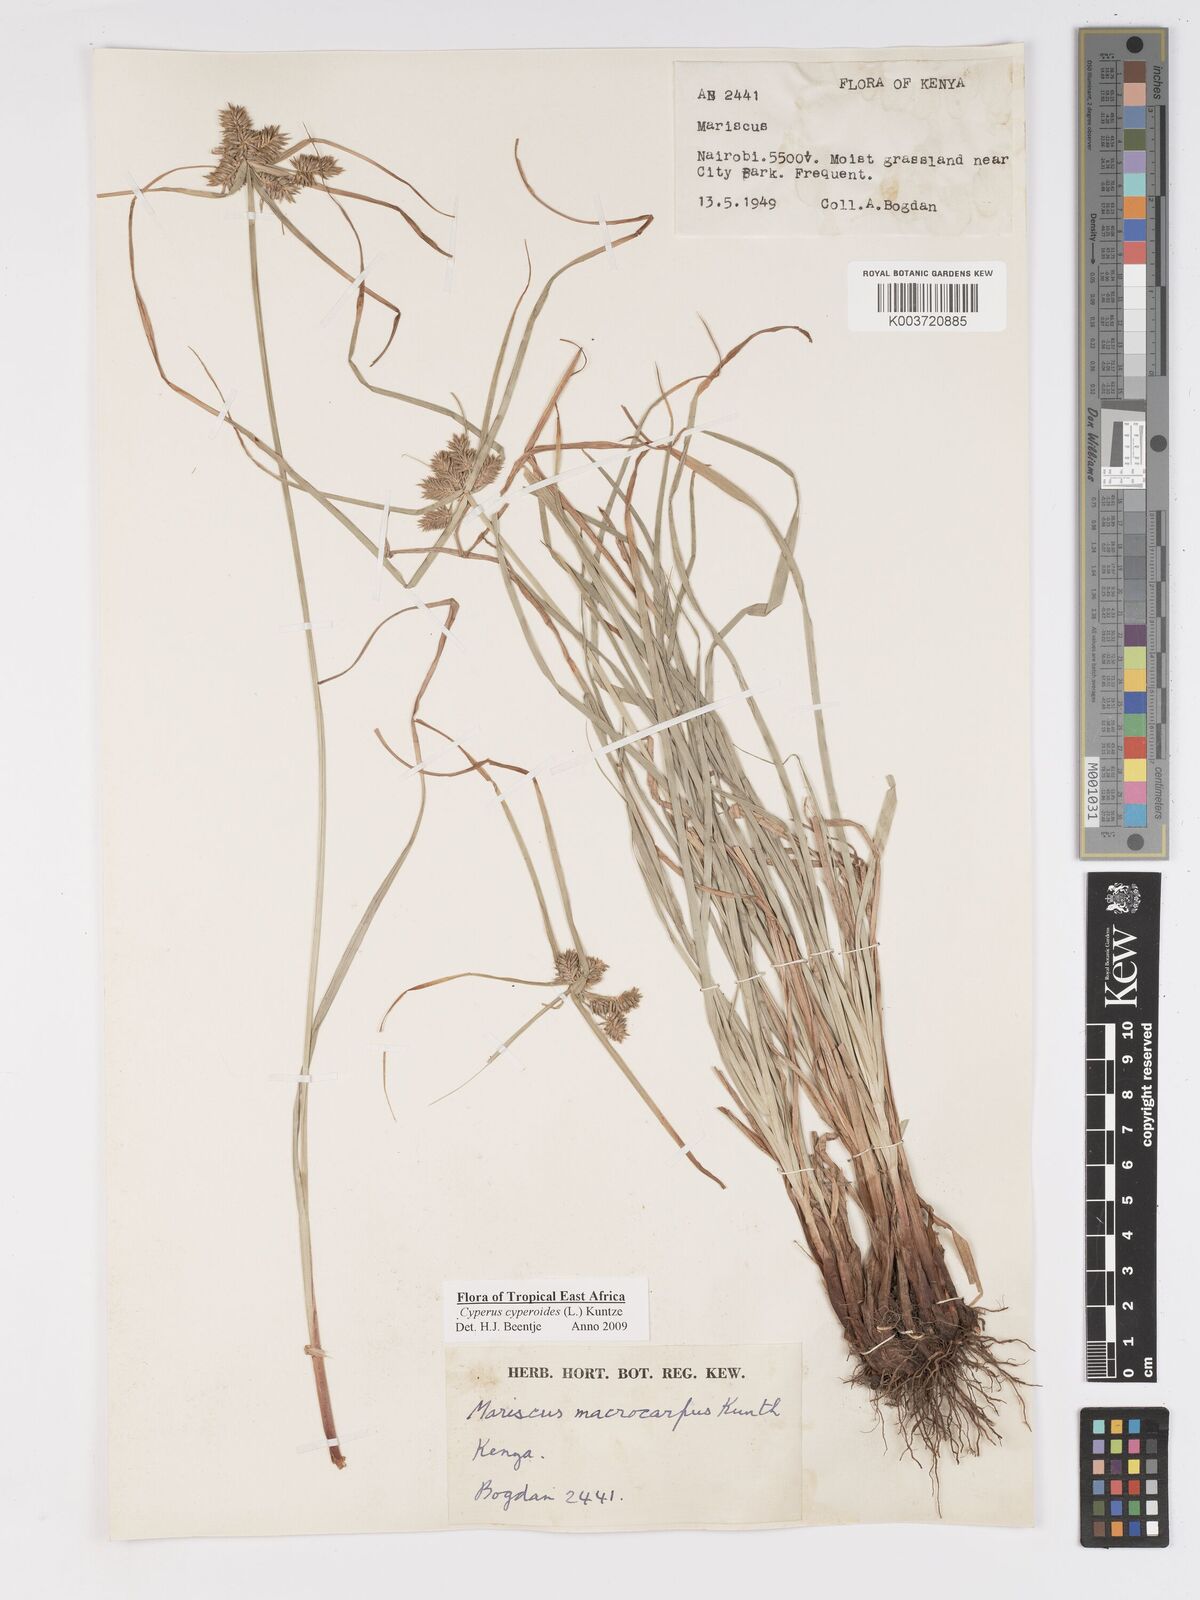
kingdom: Plantae
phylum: Tracheophyta
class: Liliopsida
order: Poales
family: Cyperaceae
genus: Cyperus
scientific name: Cyperus macrocarpus
